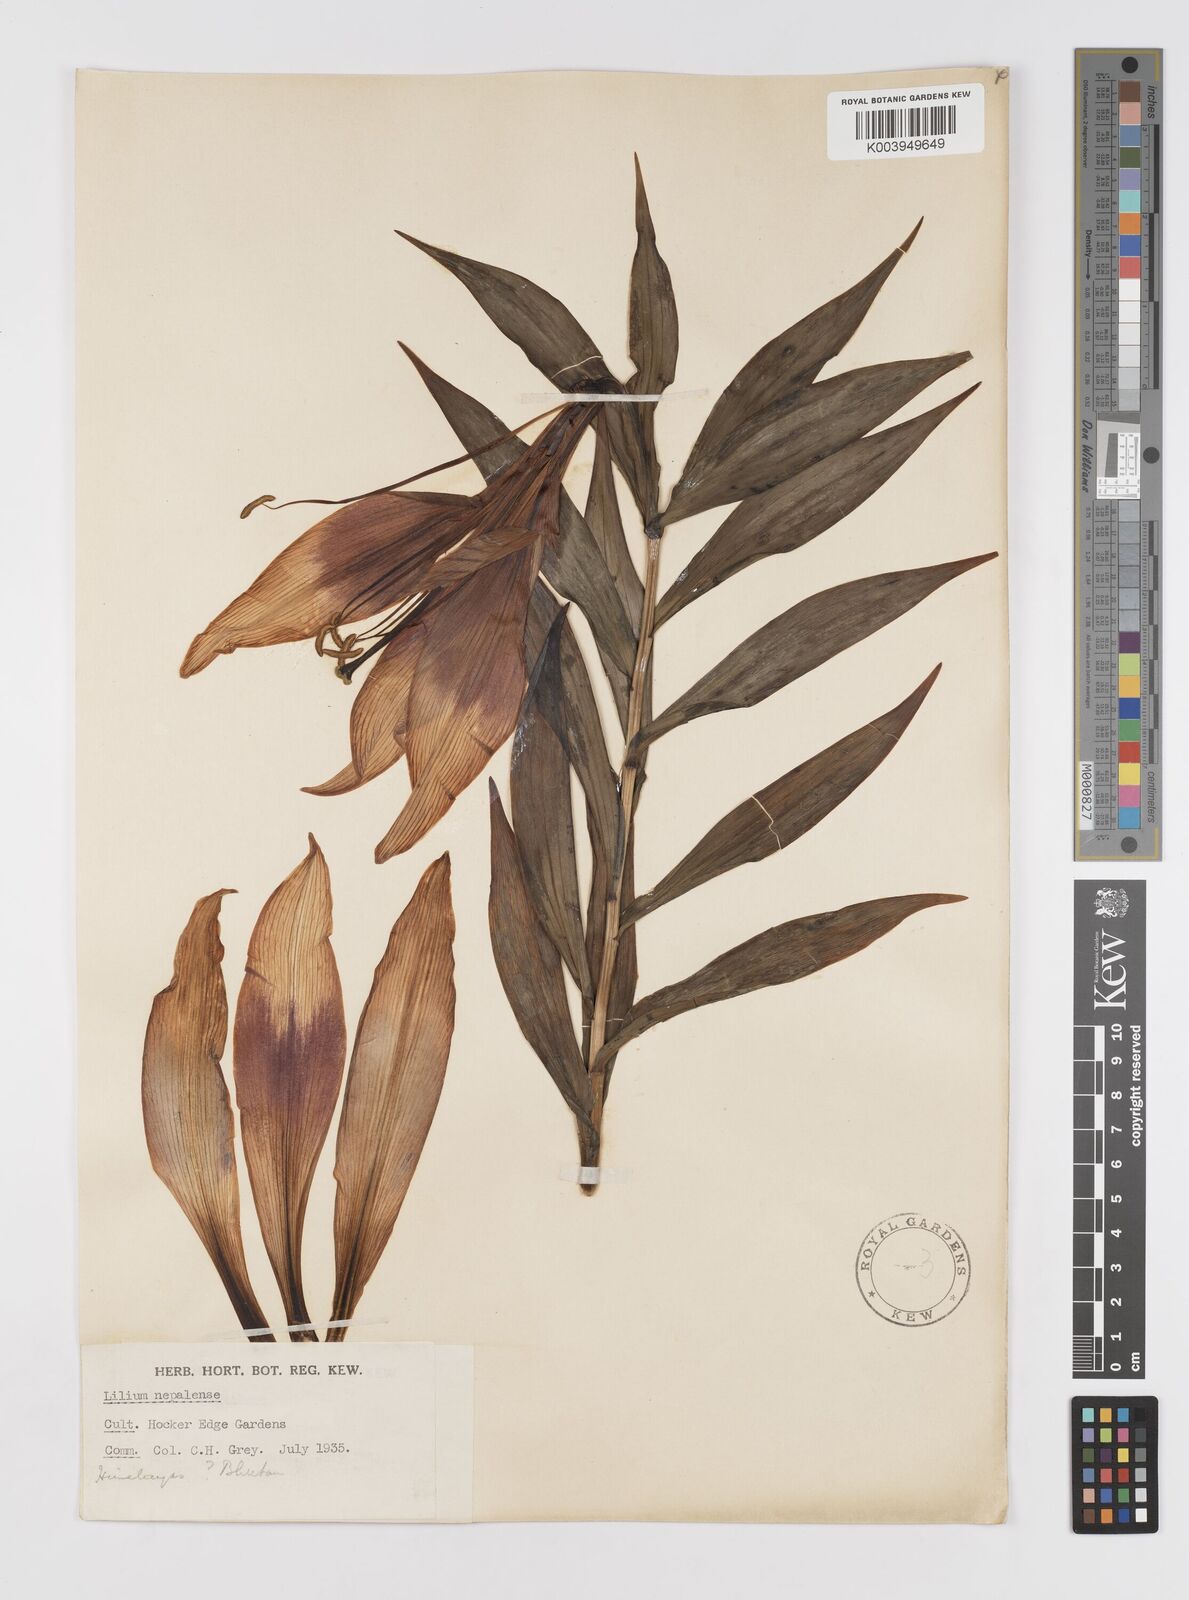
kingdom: Plantae
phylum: Tracheophyta
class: Liliopsida
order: Liliales
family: Liliaceae
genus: Lilium
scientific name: Lilium nepalense
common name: Nepal lily
